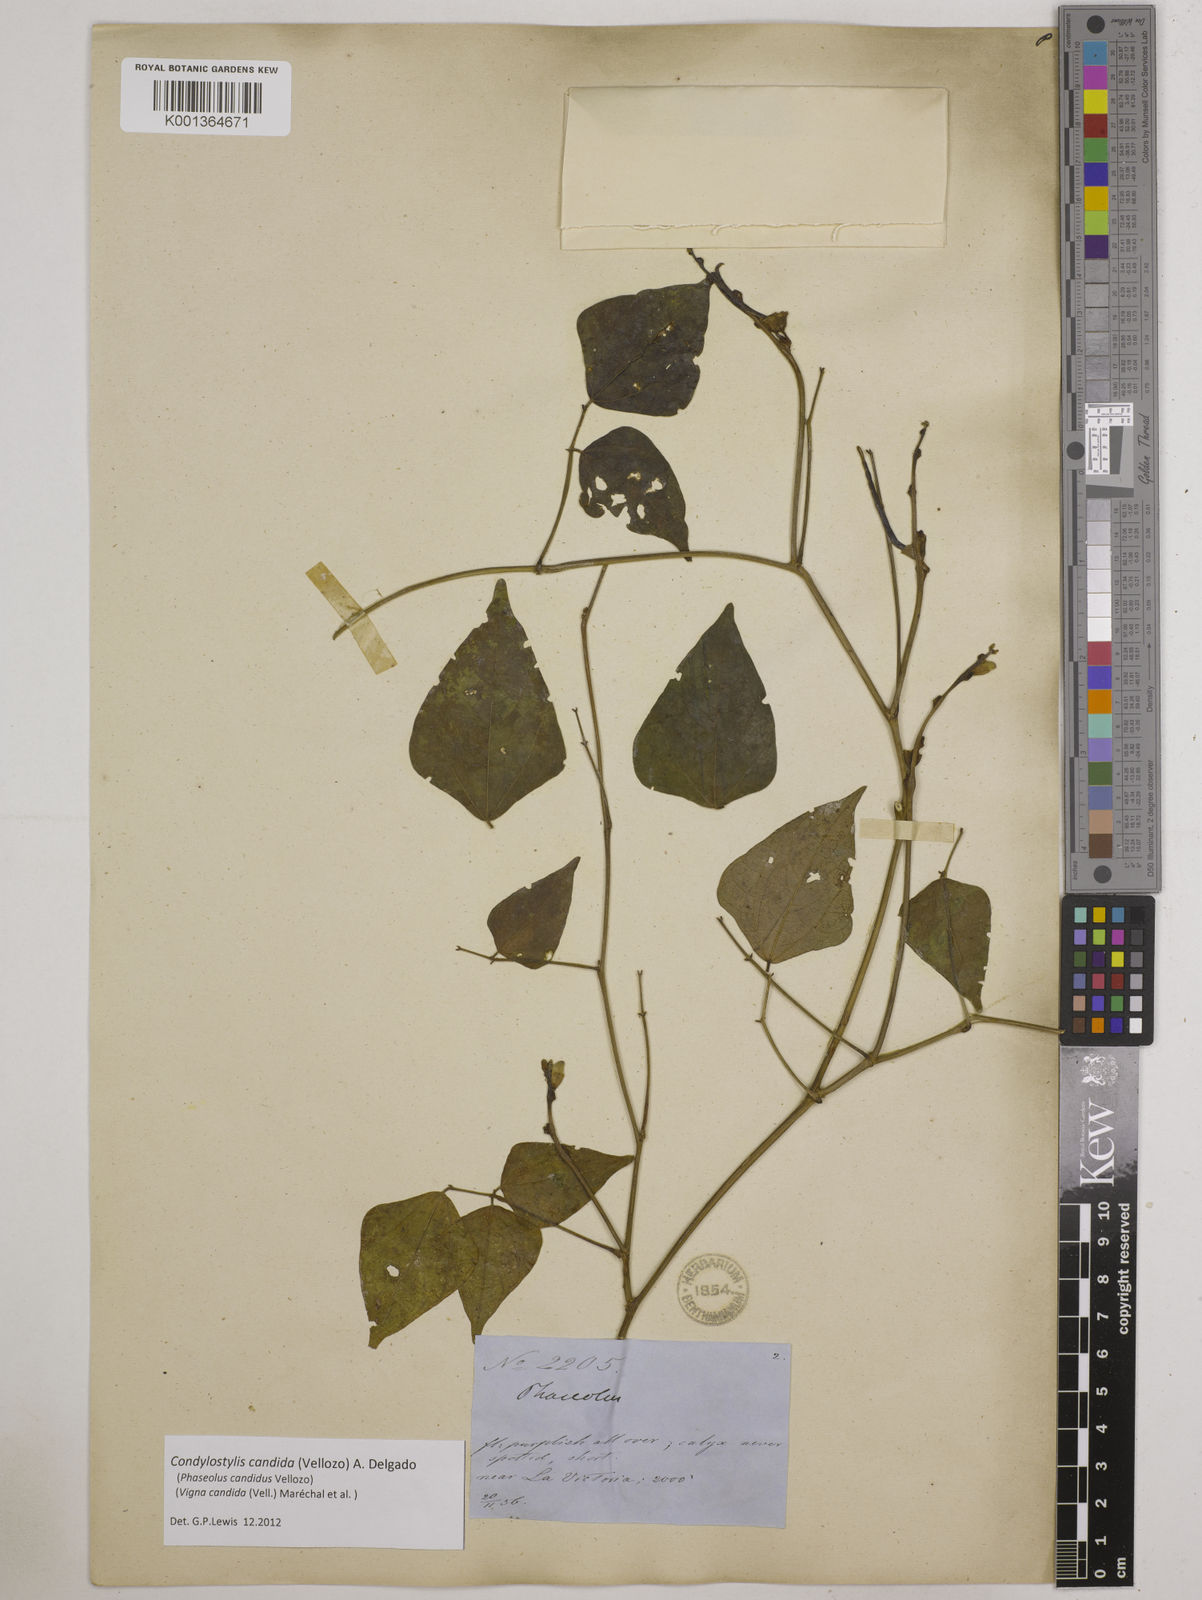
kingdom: Plantae
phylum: Tracheophyta
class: Magnoliopsida
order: Fabales
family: Fabaceae
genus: Condylostylis
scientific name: Condylostylis candida
